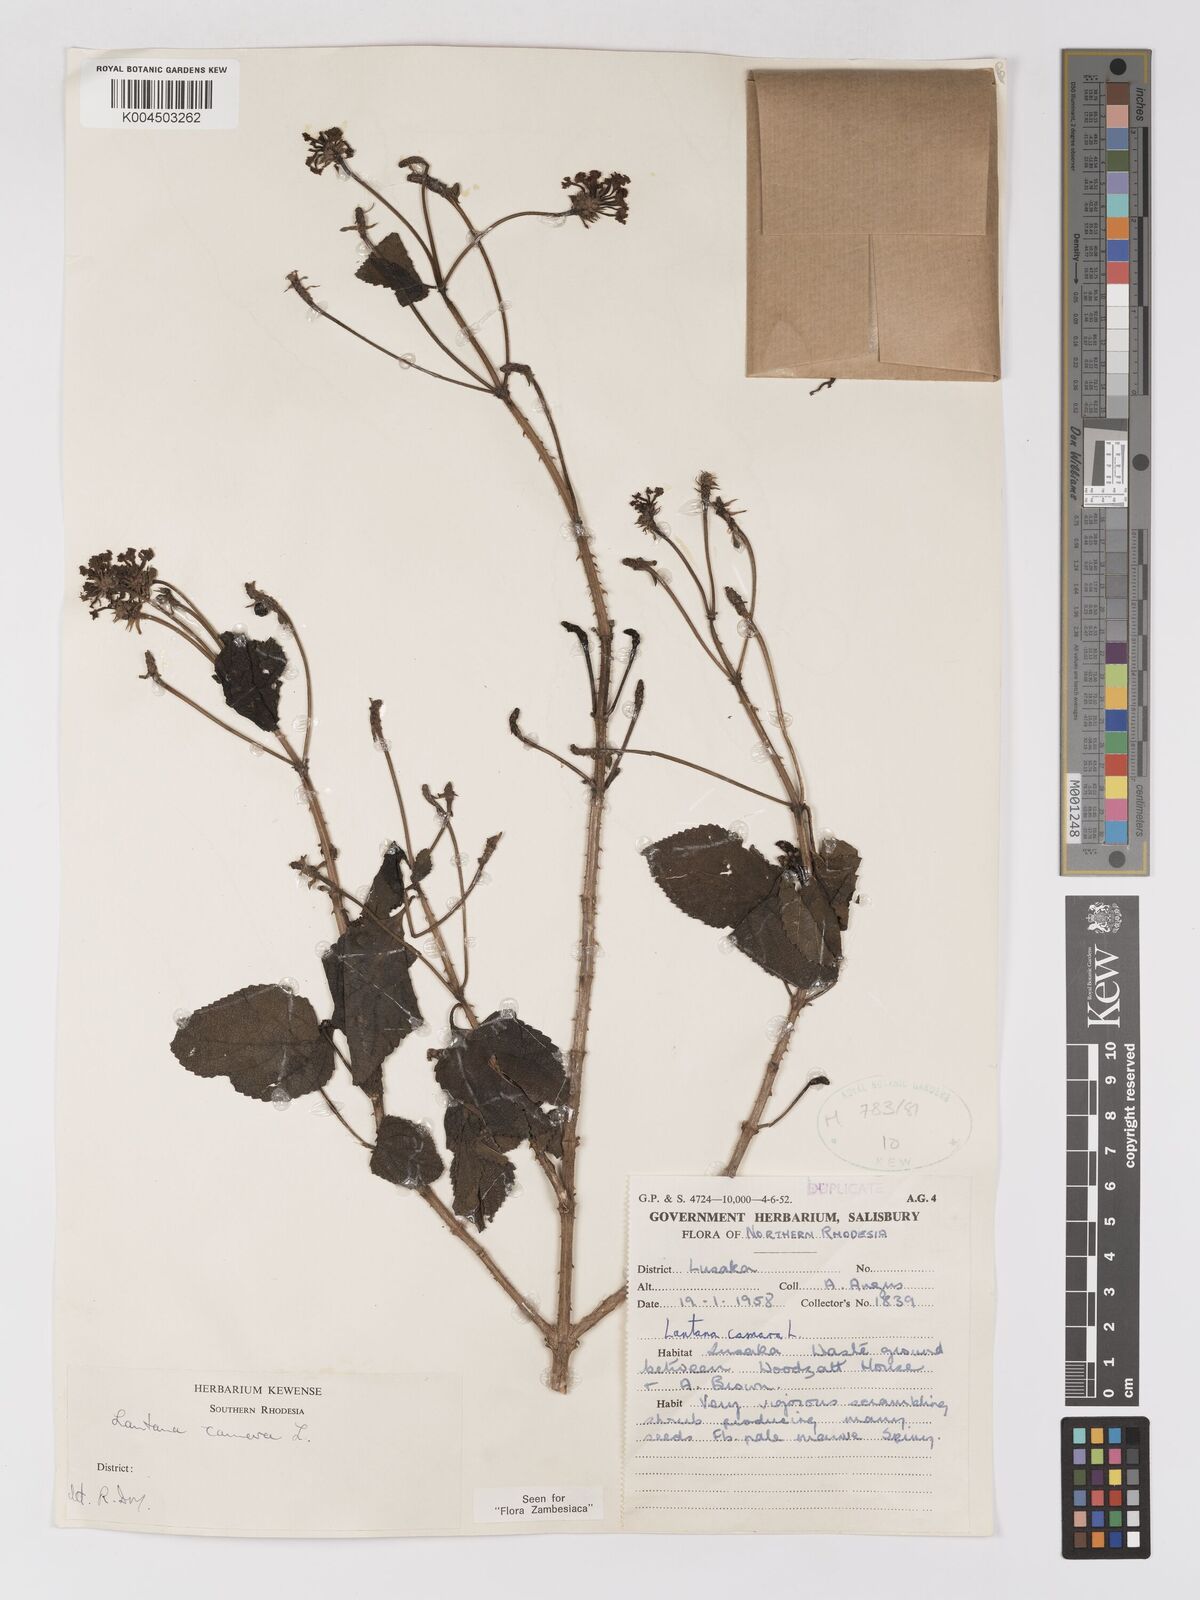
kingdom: Plantae
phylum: Tracheophyta
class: Magnoliopsida
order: Lamiales
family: Verbenaceae
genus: Lantana
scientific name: Lantana camara
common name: Lantana
